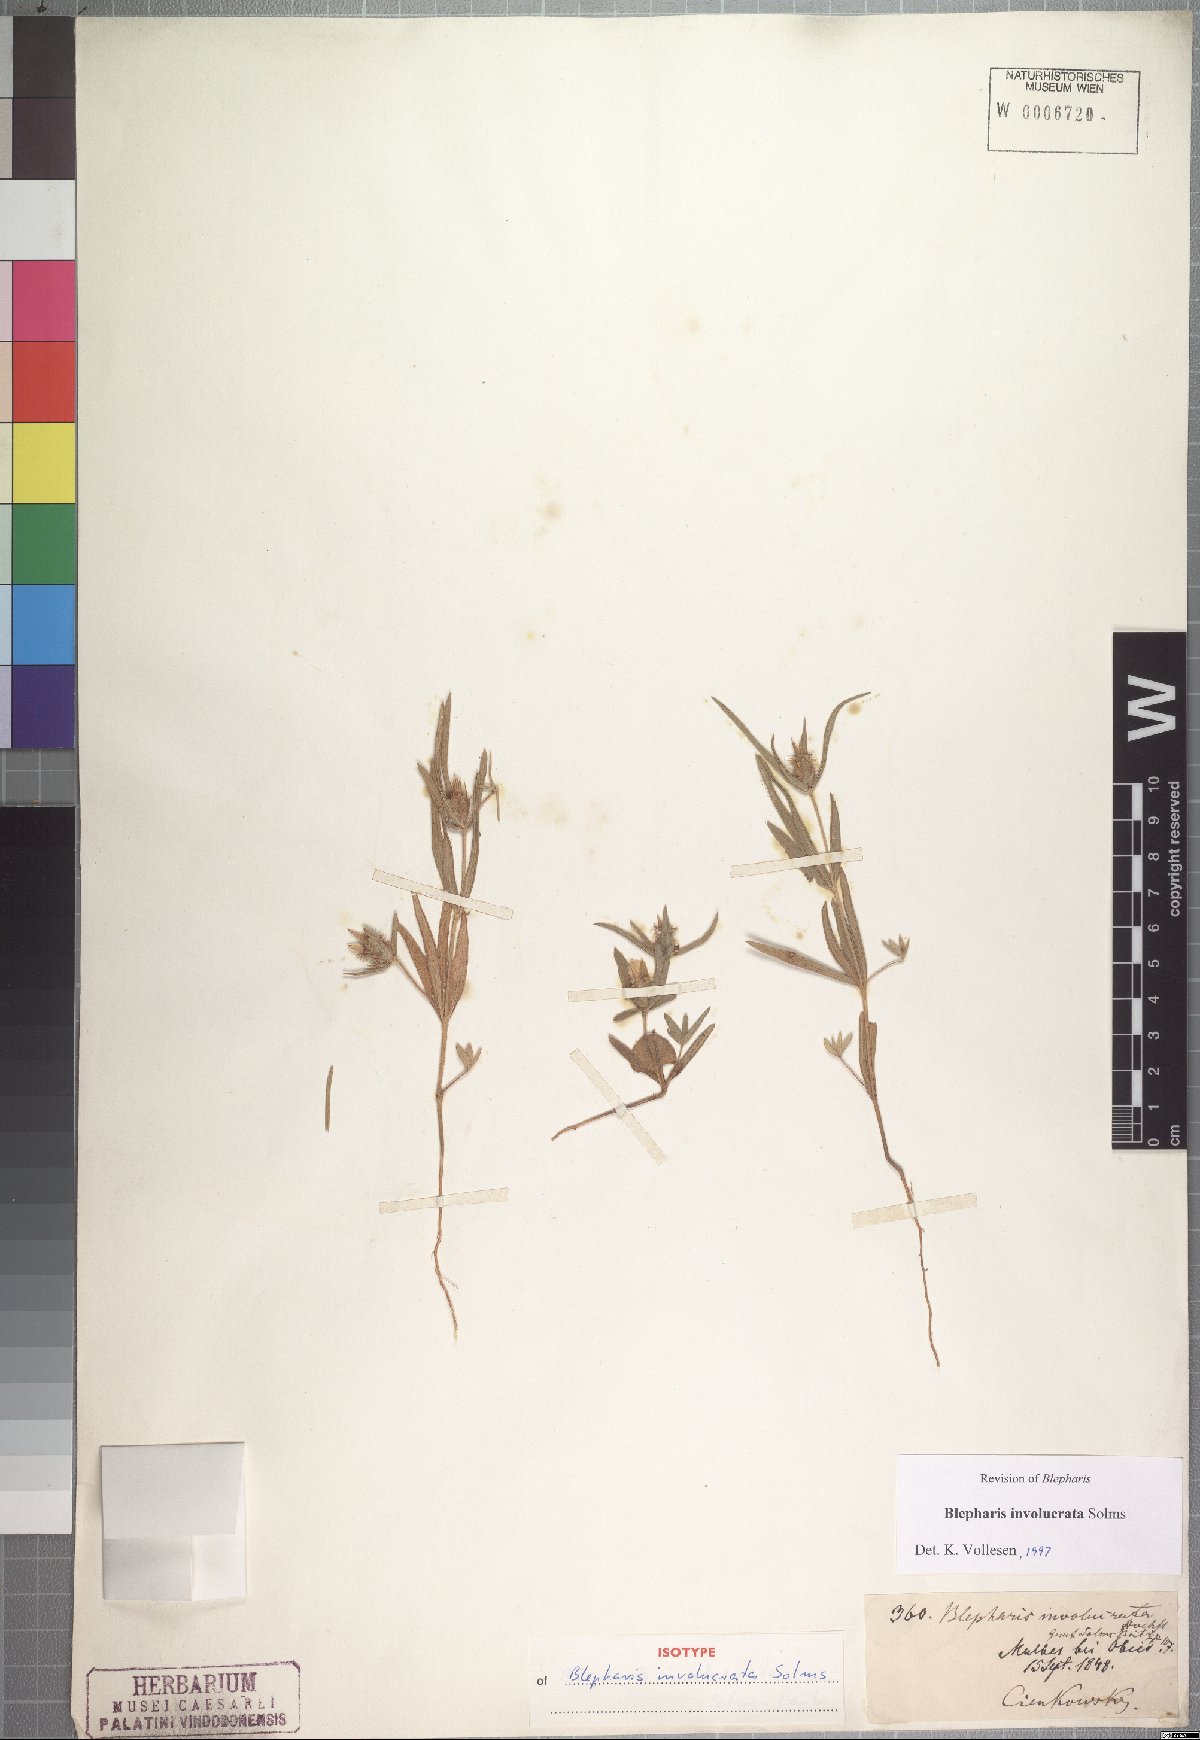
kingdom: Plantae
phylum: Tracheophyta
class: Magnoliopsida
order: Lamiales
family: Acanthaceae
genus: Blepharis
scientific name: Blepharis involucrata
